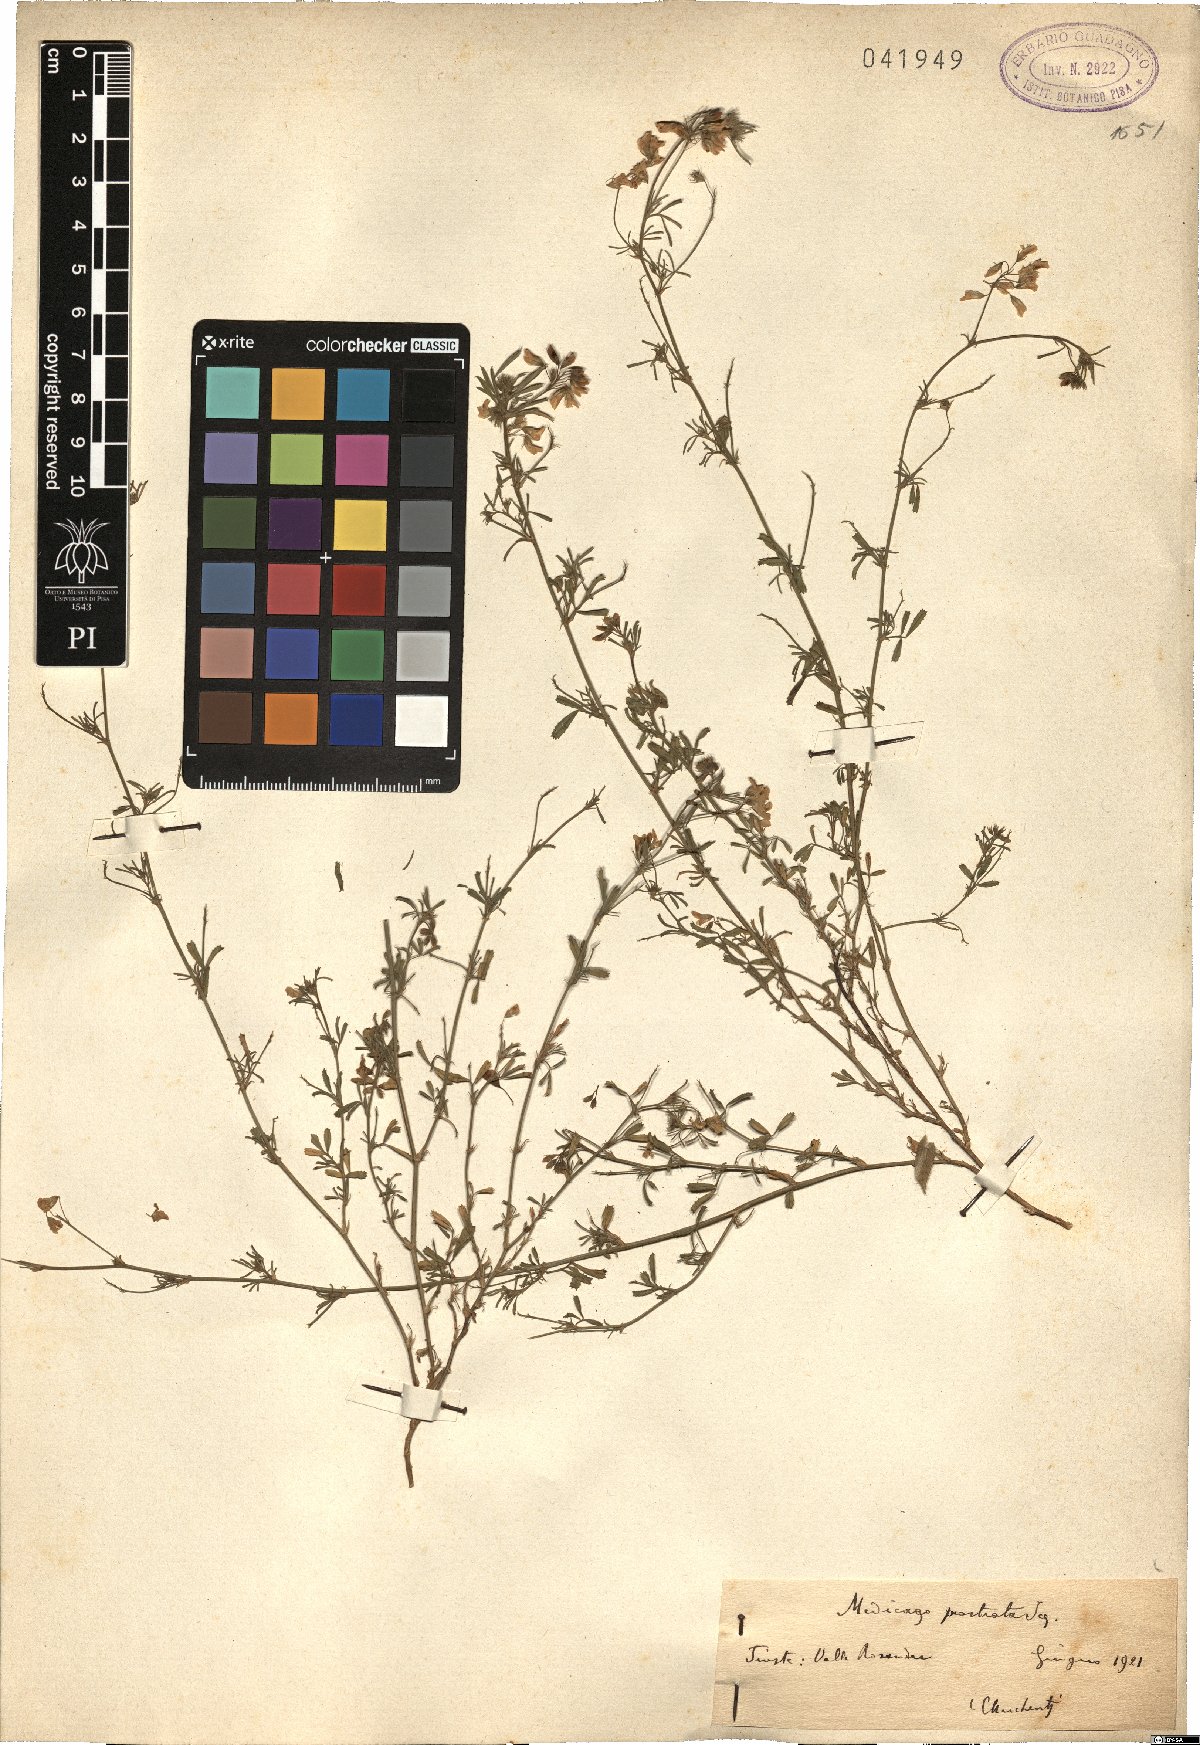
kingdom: Plantae
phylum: Tracheophyta
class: Magnoliopsida
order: Fabales
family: Fabaceae
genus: Medicago
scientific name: Medicago prostrata
